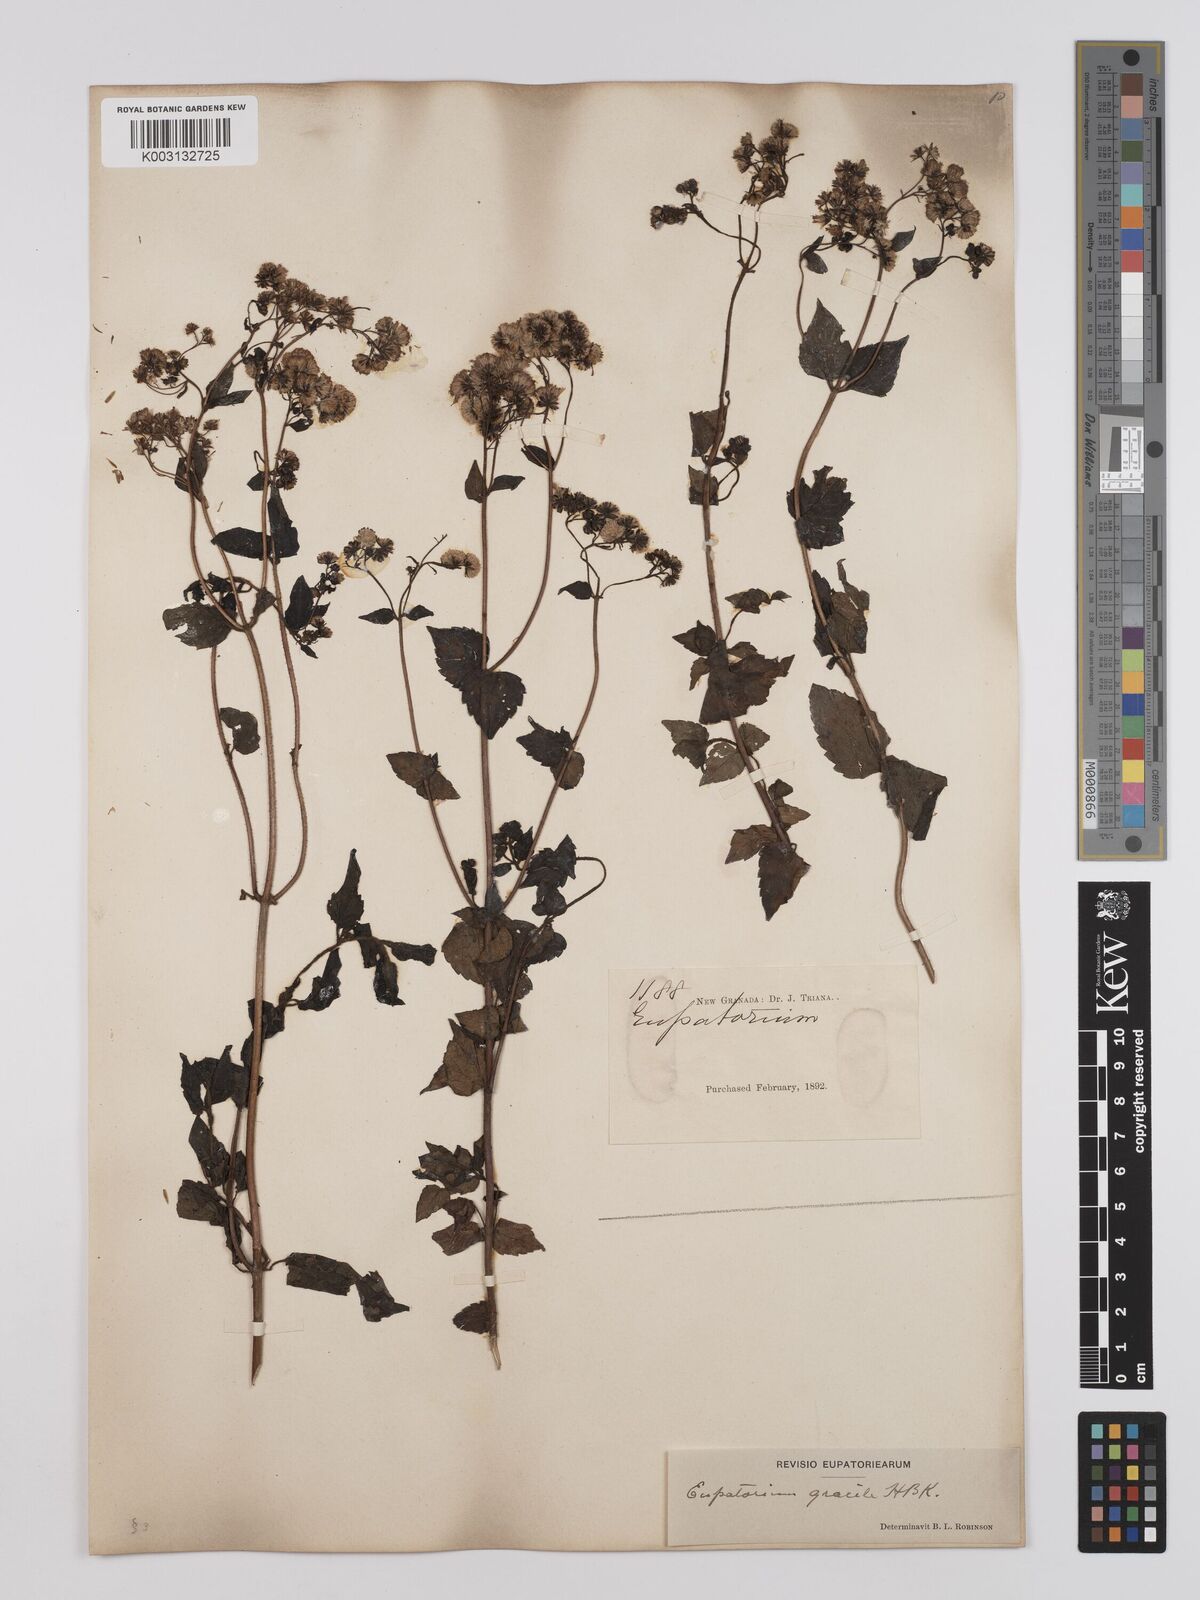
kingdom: Plantae
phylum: Tracheophyta
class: Magnoliopsida
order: Asterales
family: Asteraceae
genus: Ageratina
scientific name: Ageratina gracilis
